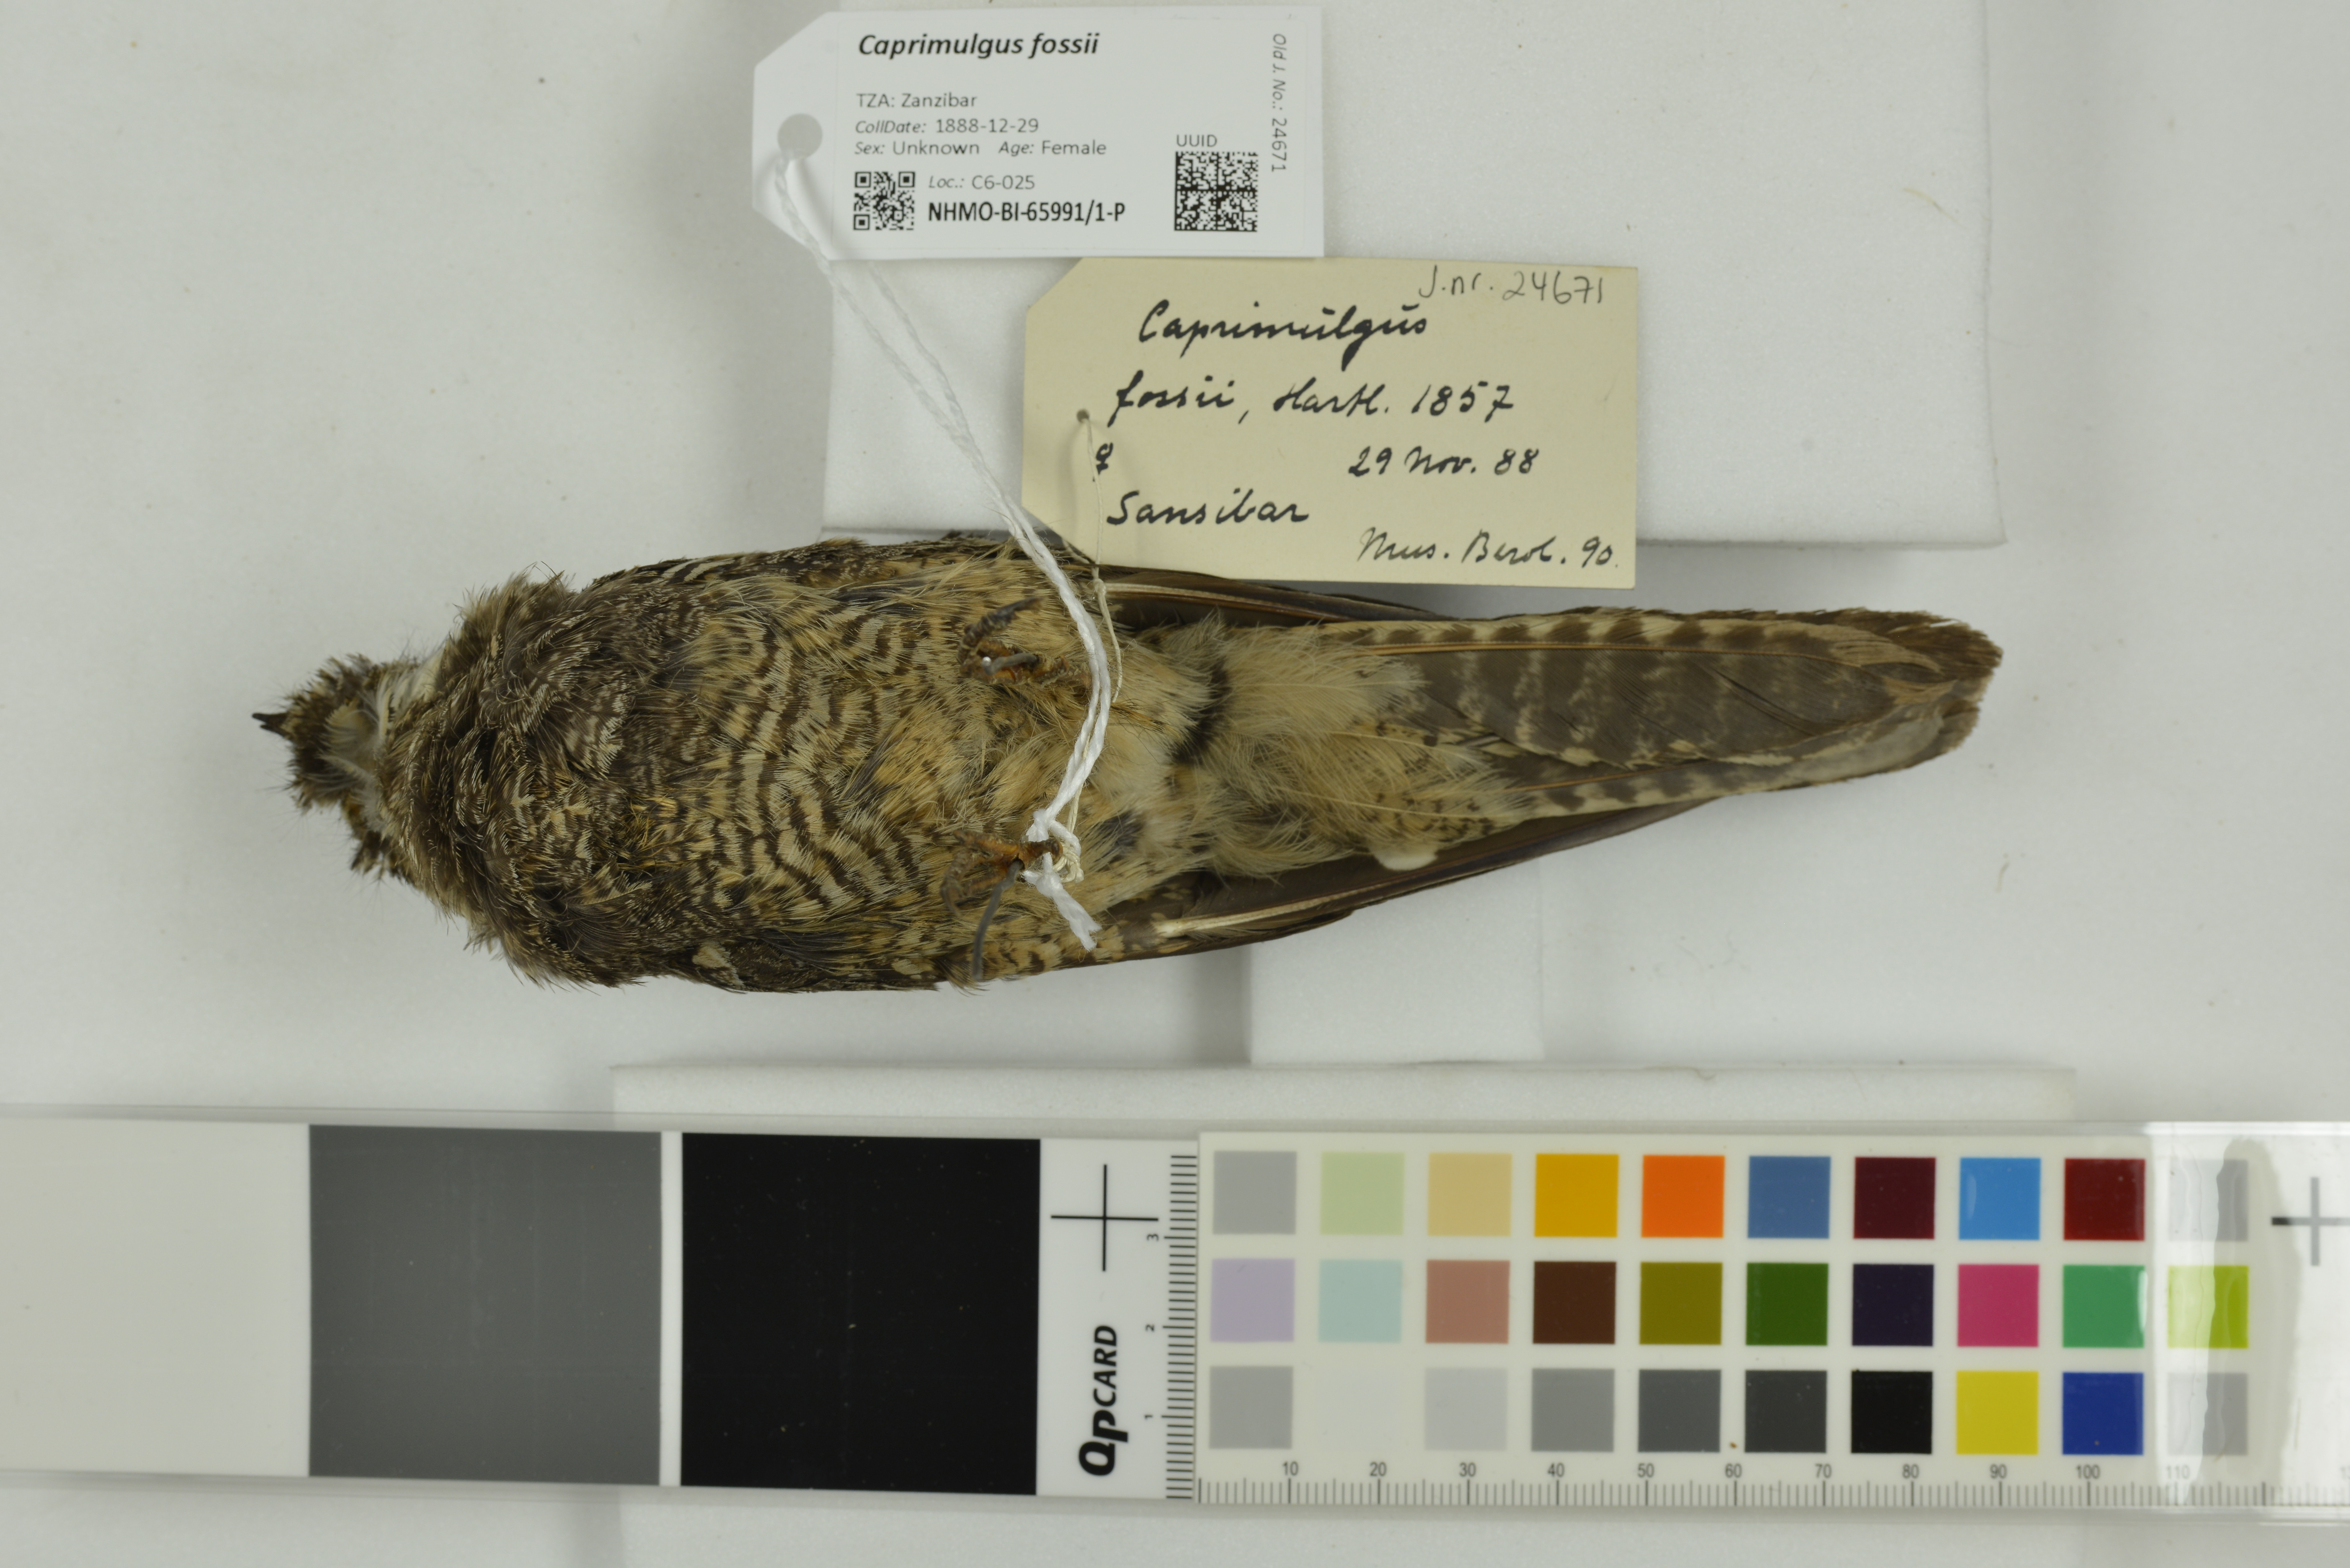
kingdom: Animalia
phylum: Chordata
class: Aves
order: Caprimulgiformes
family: Caprimulgidae
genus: Caprimulgus
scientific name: Caprimulgus fossii
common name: Square-tailed nightjar
